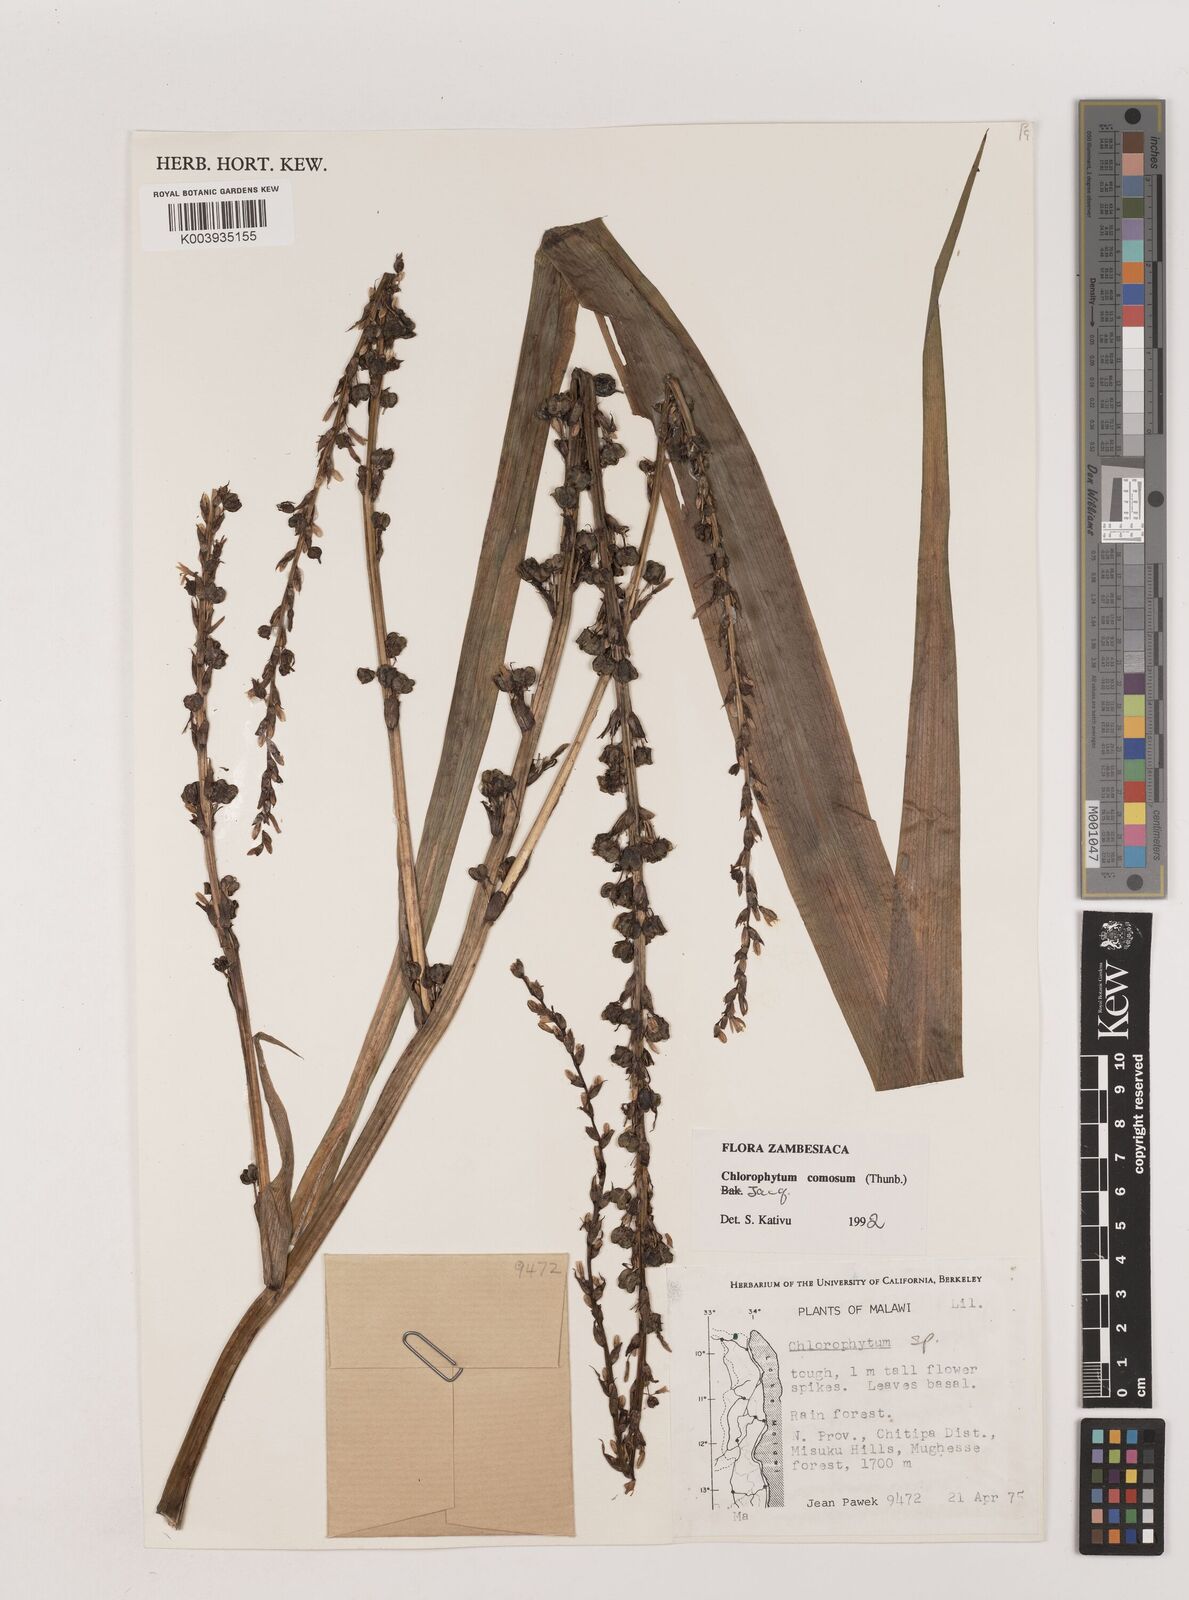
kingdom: Plantae
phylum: Tracheophyta
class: Liliopsida
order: Asparagales
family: Asparagaceae
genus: Chlorophytum
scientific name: Chlorophytum comosum
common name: Spider plant
